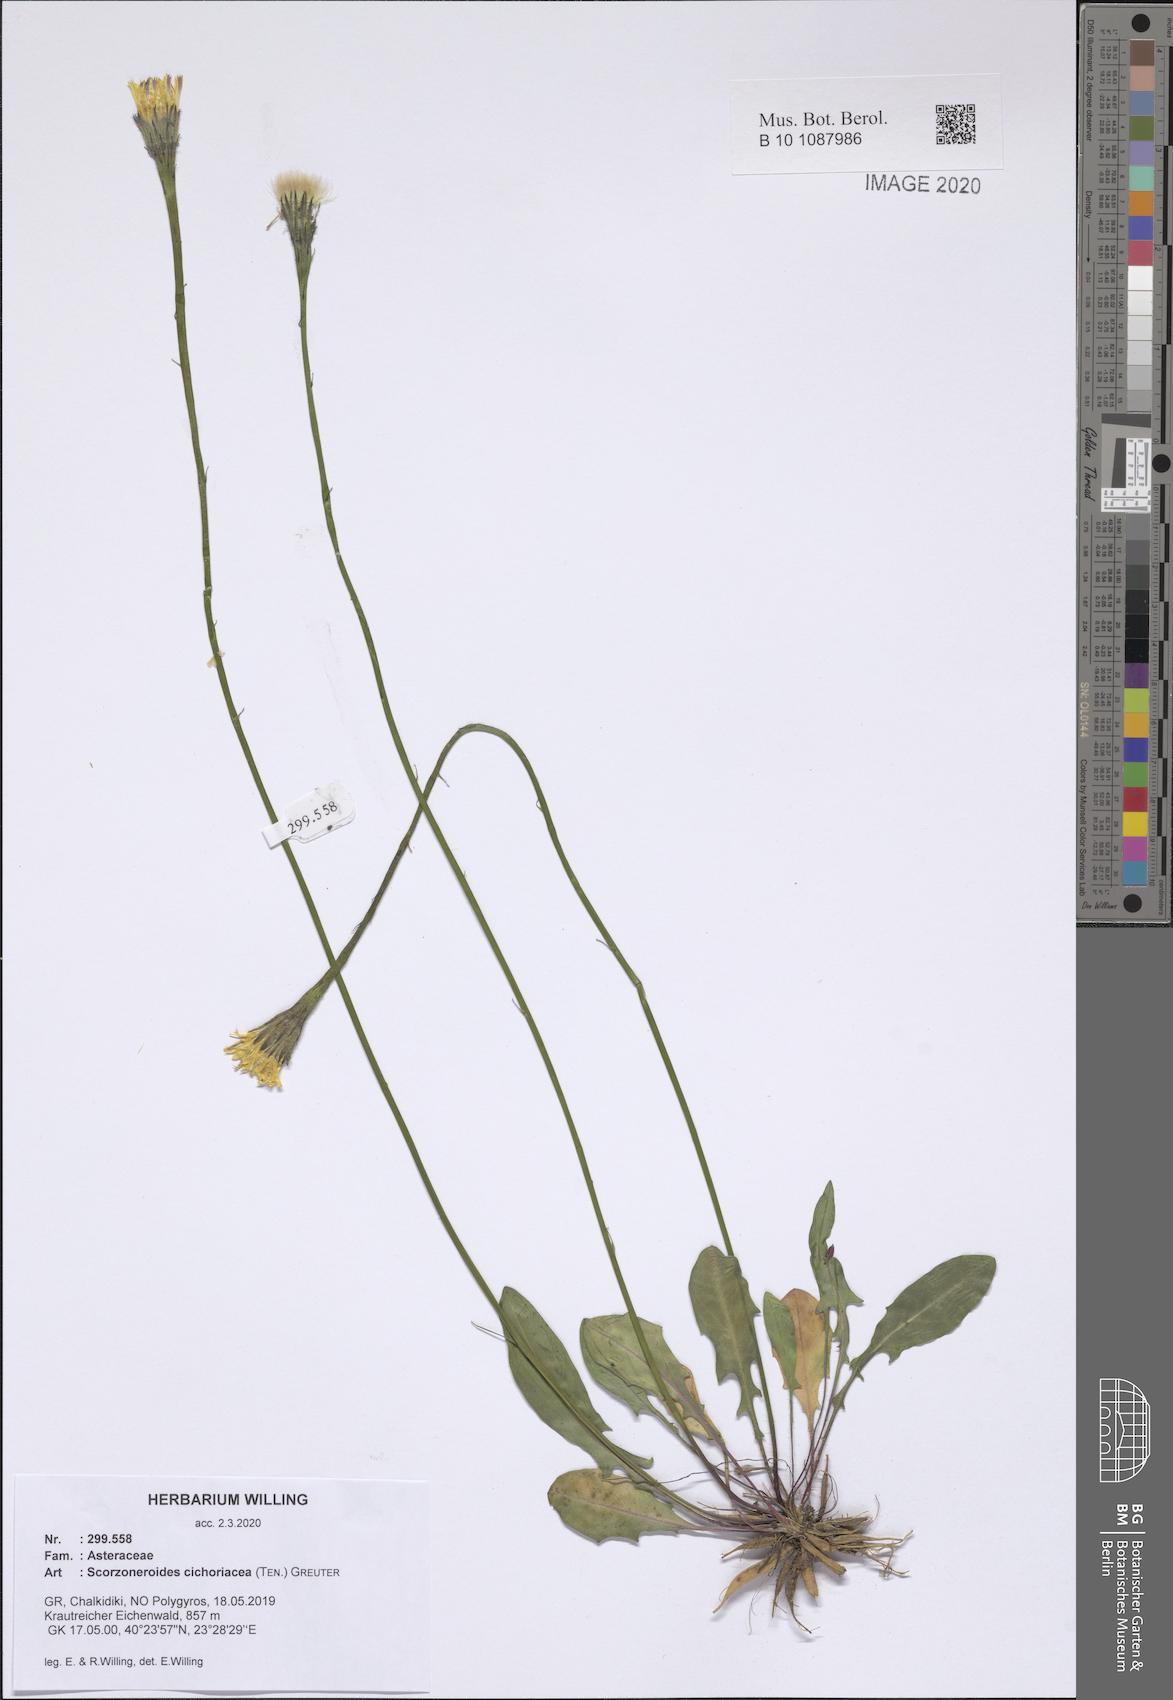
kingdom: Plantae
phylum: Tracheophyta
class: Magnoliopsida
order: Asterales
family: Asteraceae
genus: Scorzoneroides
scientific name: Scorzoneroides cichoriacea
